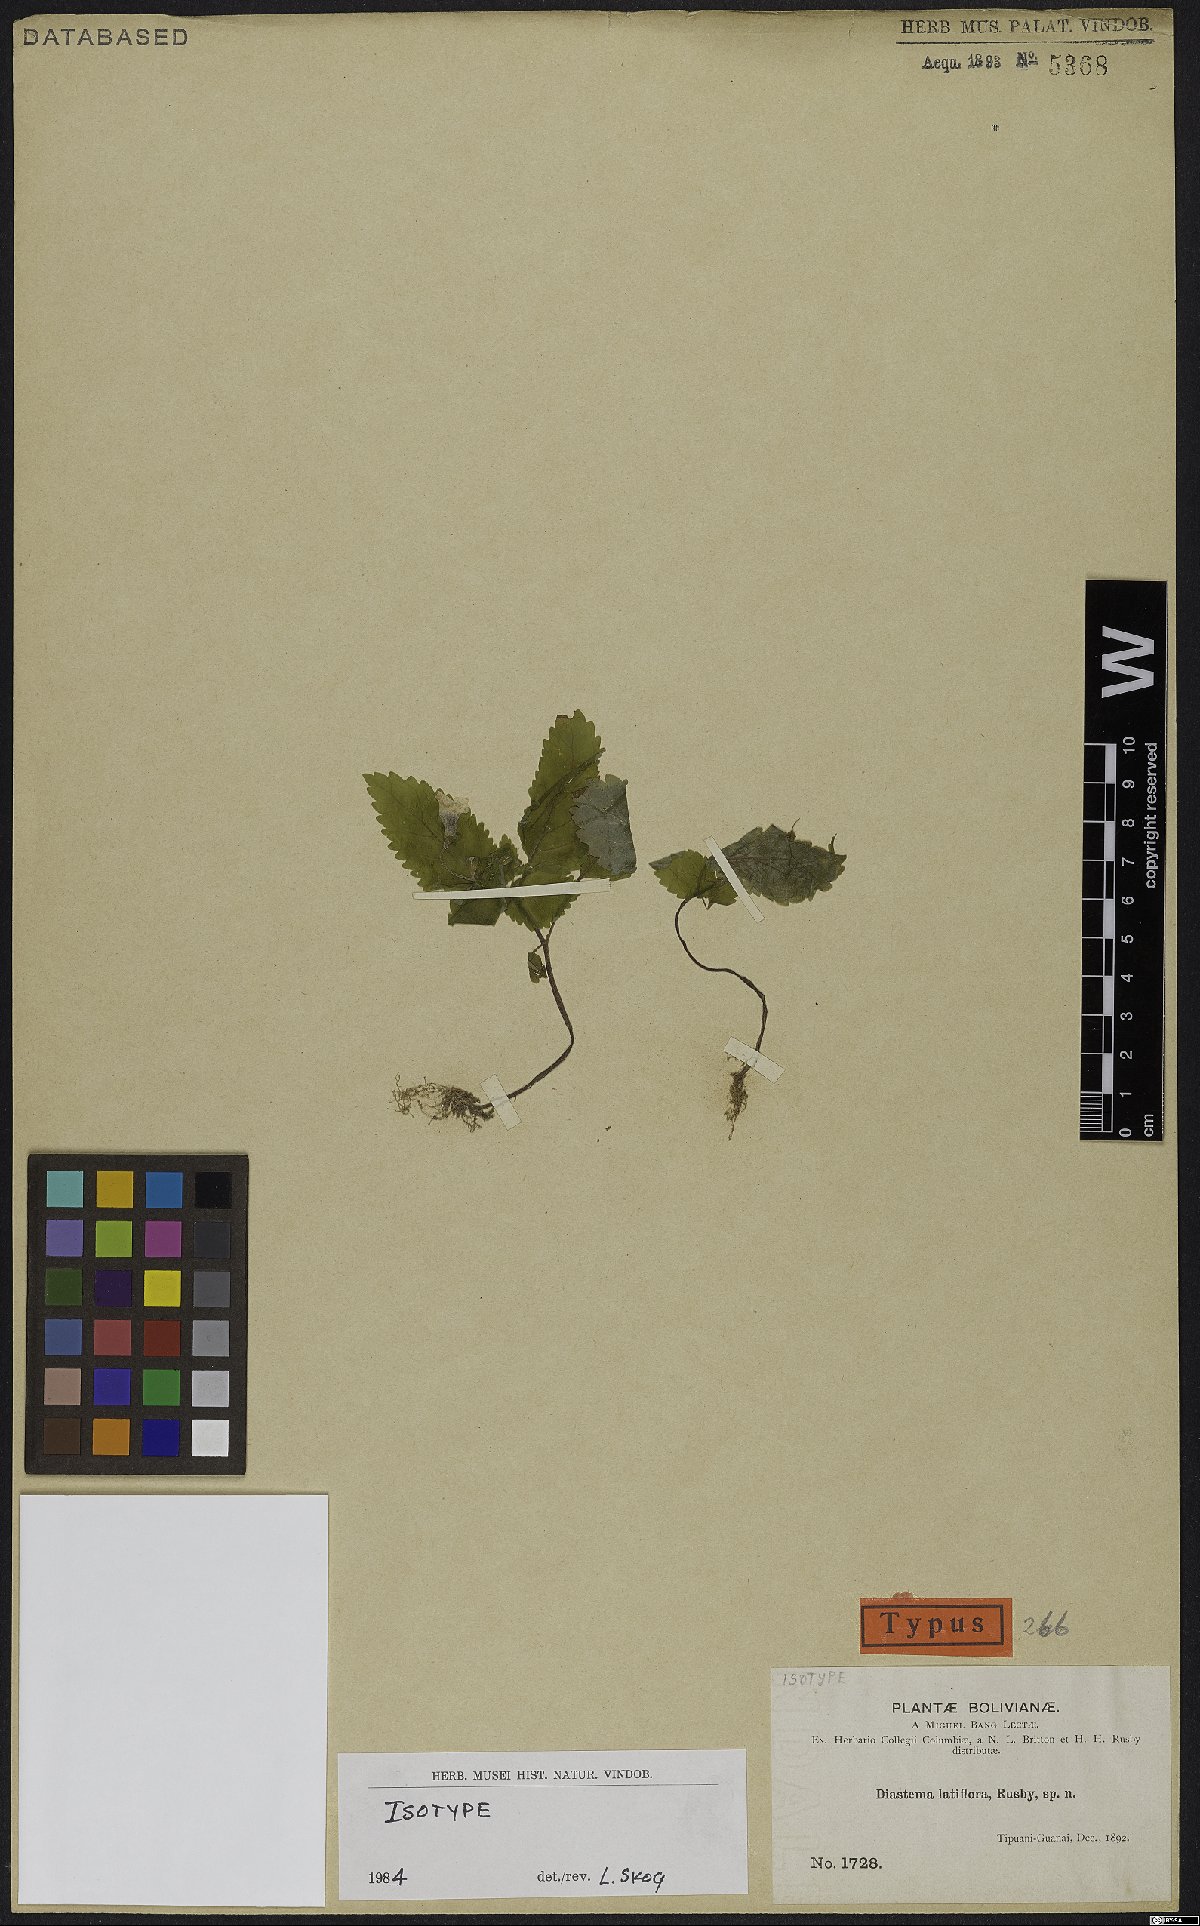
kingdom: Plantae
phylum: Tracheophyta
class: Magnoliopsida
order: Lamiales
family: Gesneriaceae
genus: Diastema
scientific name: Diastema latiflorum
